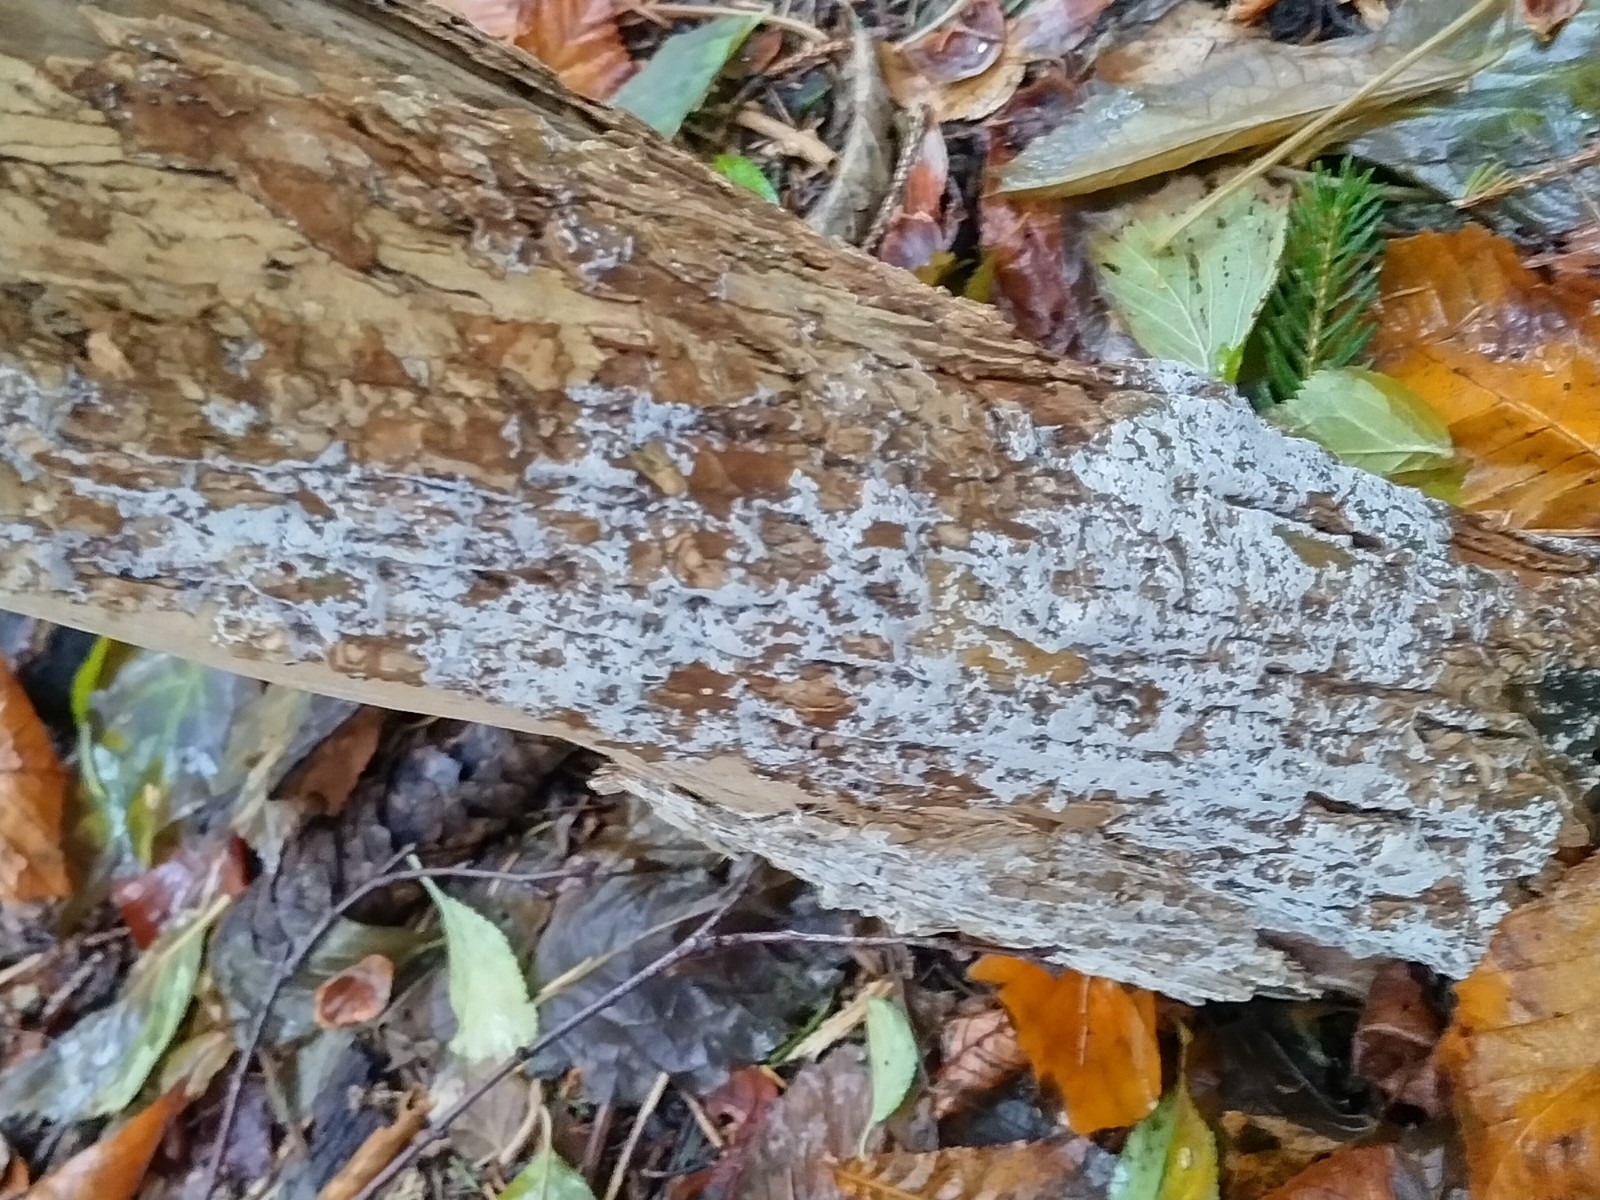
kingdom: Fungi
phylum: Basidiomycota
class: Agaricomycetes
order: Corticiales
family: Corticiaceae
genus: Lyomyces
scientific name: Lyomyces sambuci
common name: almindelig hyldehinde
